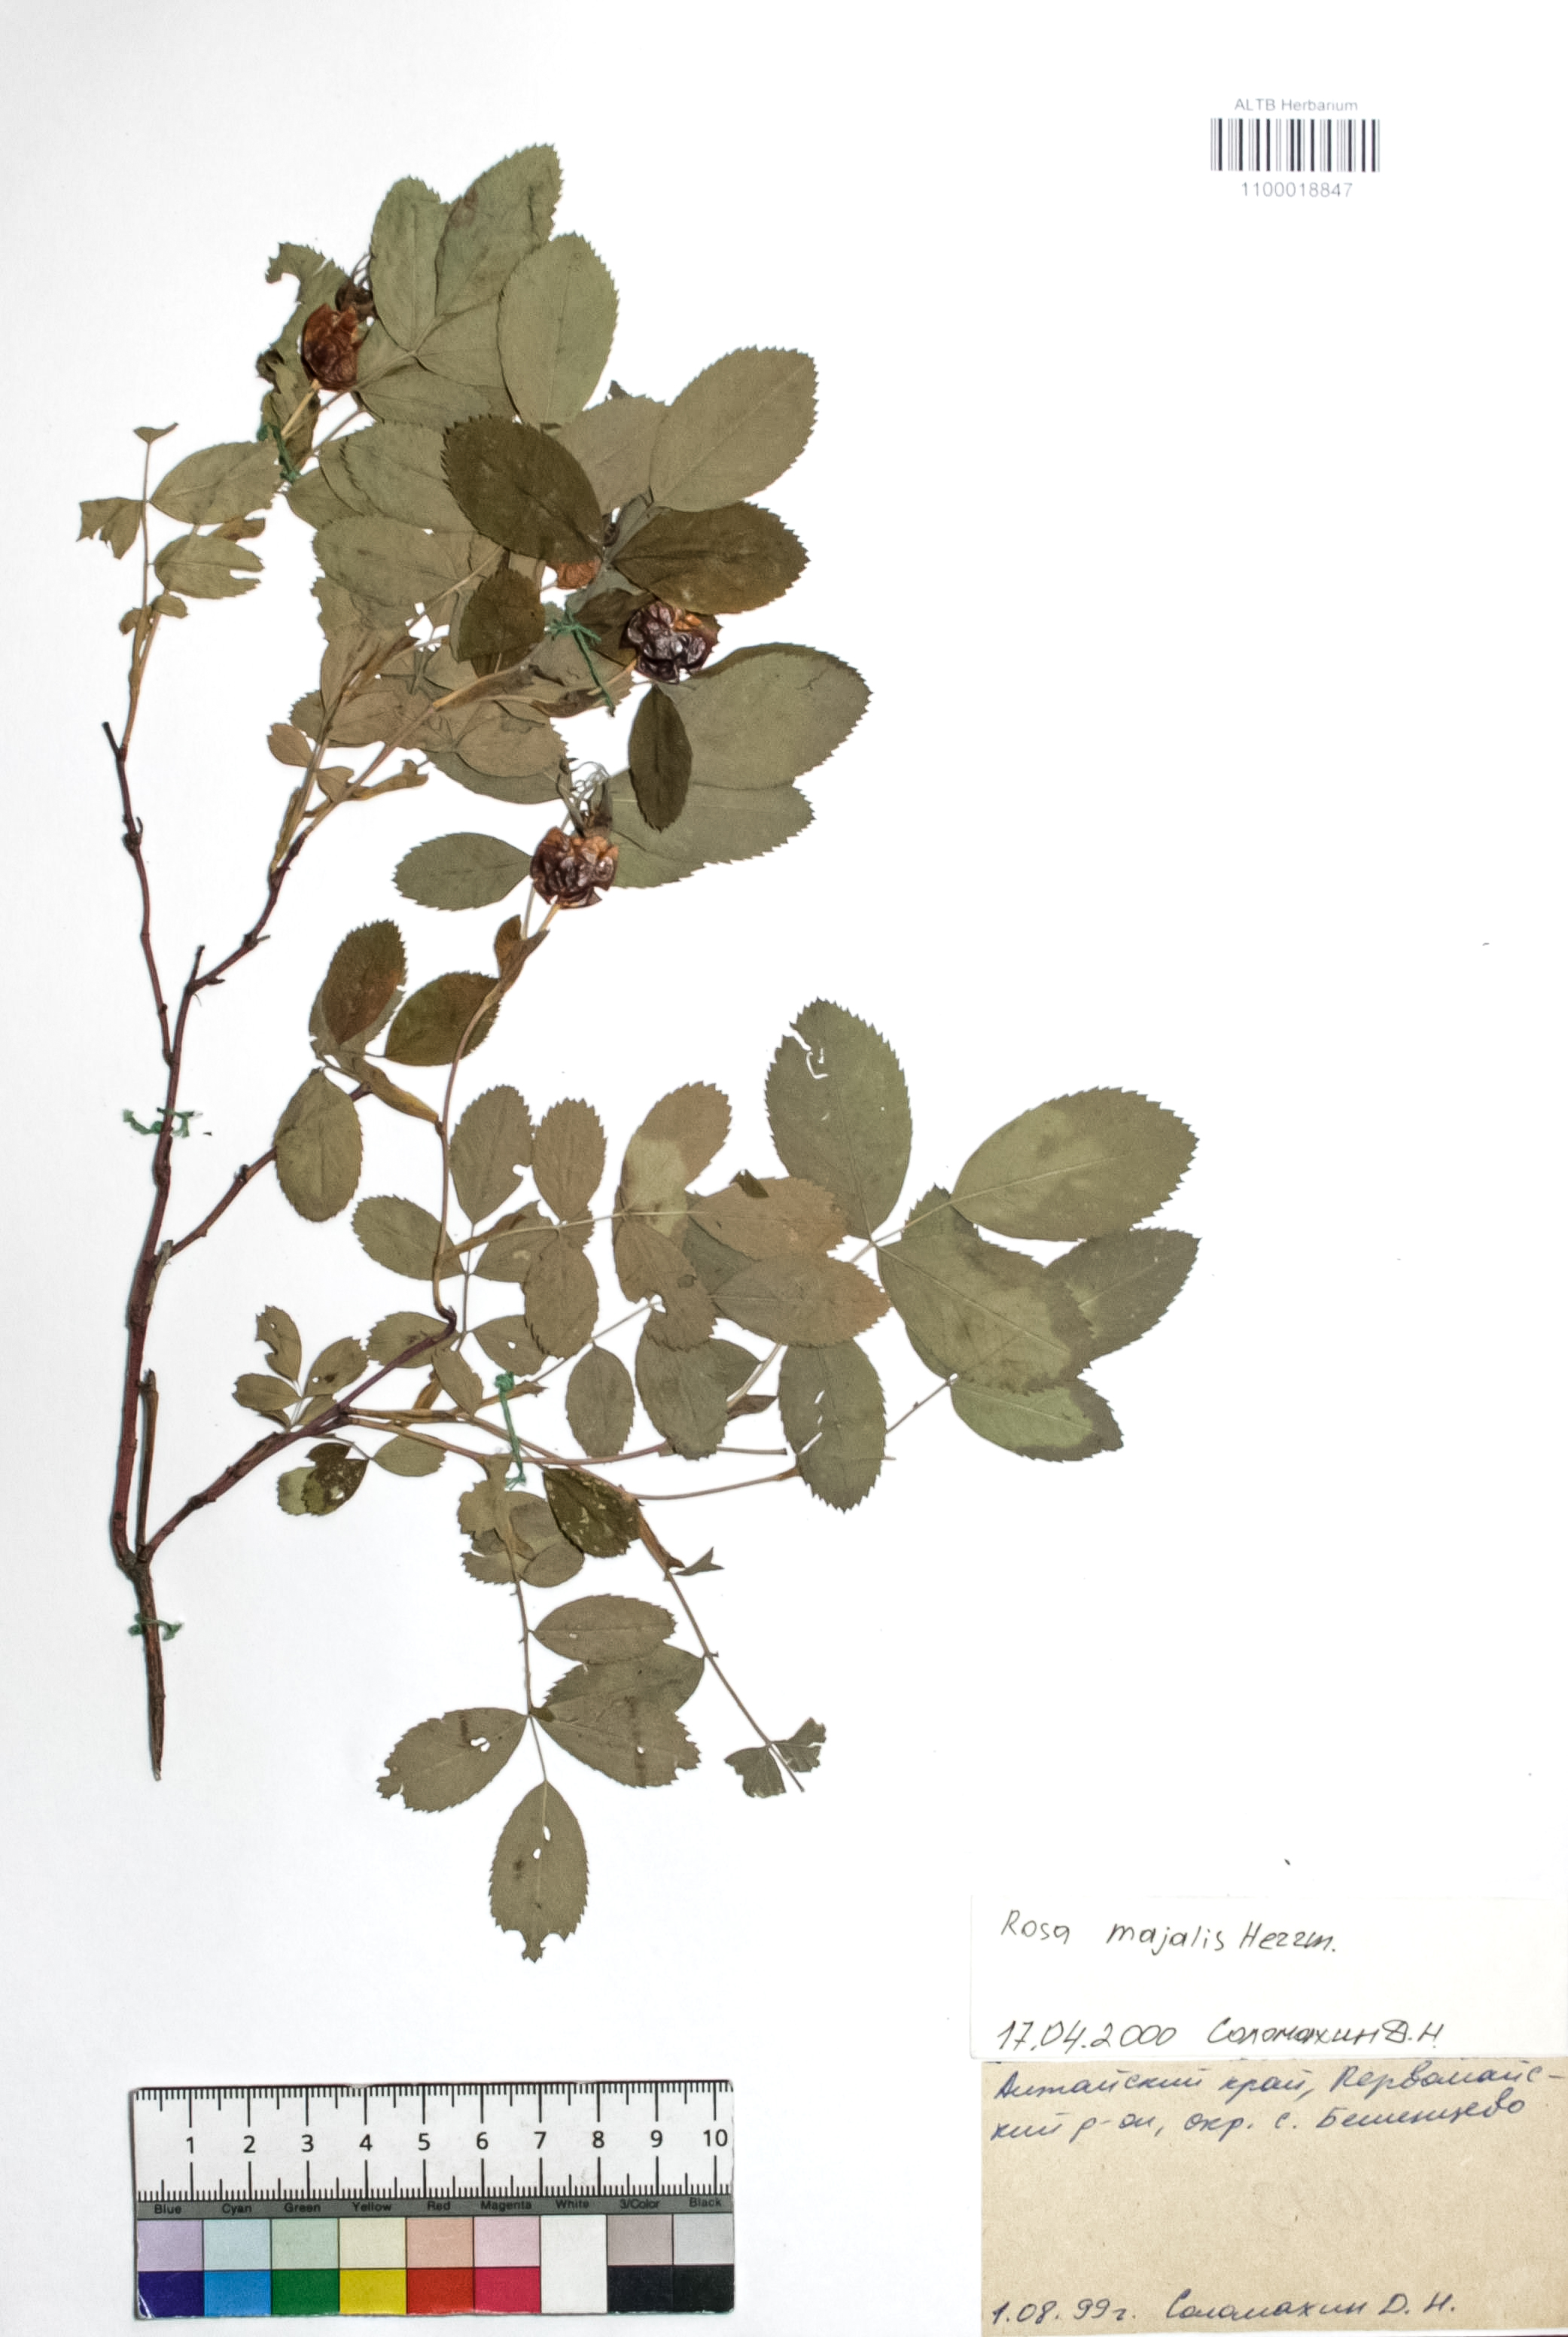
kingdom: Plantae
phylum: Tracheophyta
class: Magnoliopsida
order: Rosales
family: Rosaceae
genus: Rosa
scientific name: Rosa majalis
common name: Cinnamon rose
